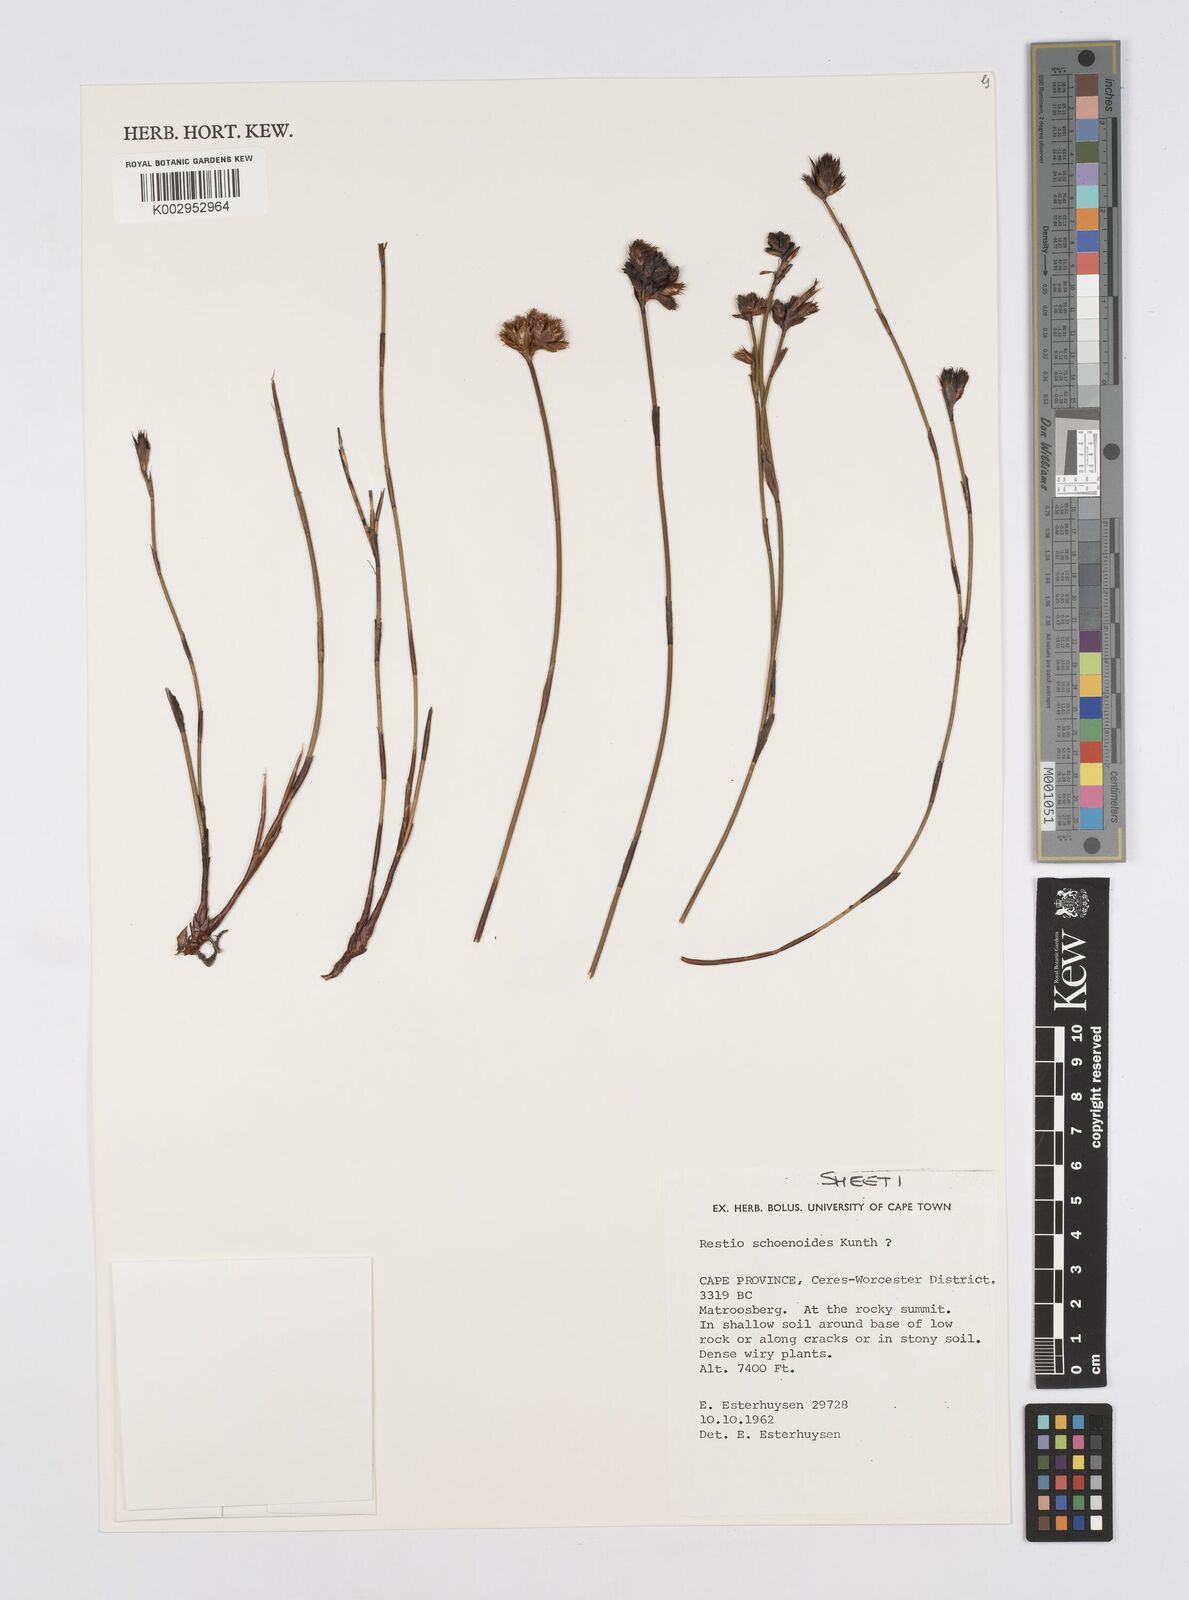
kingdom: Plantae
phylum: Tracheophyta
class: Liliopsida
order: Poales
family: Restionaceae
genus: Restio
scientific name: Restio schoenoides
